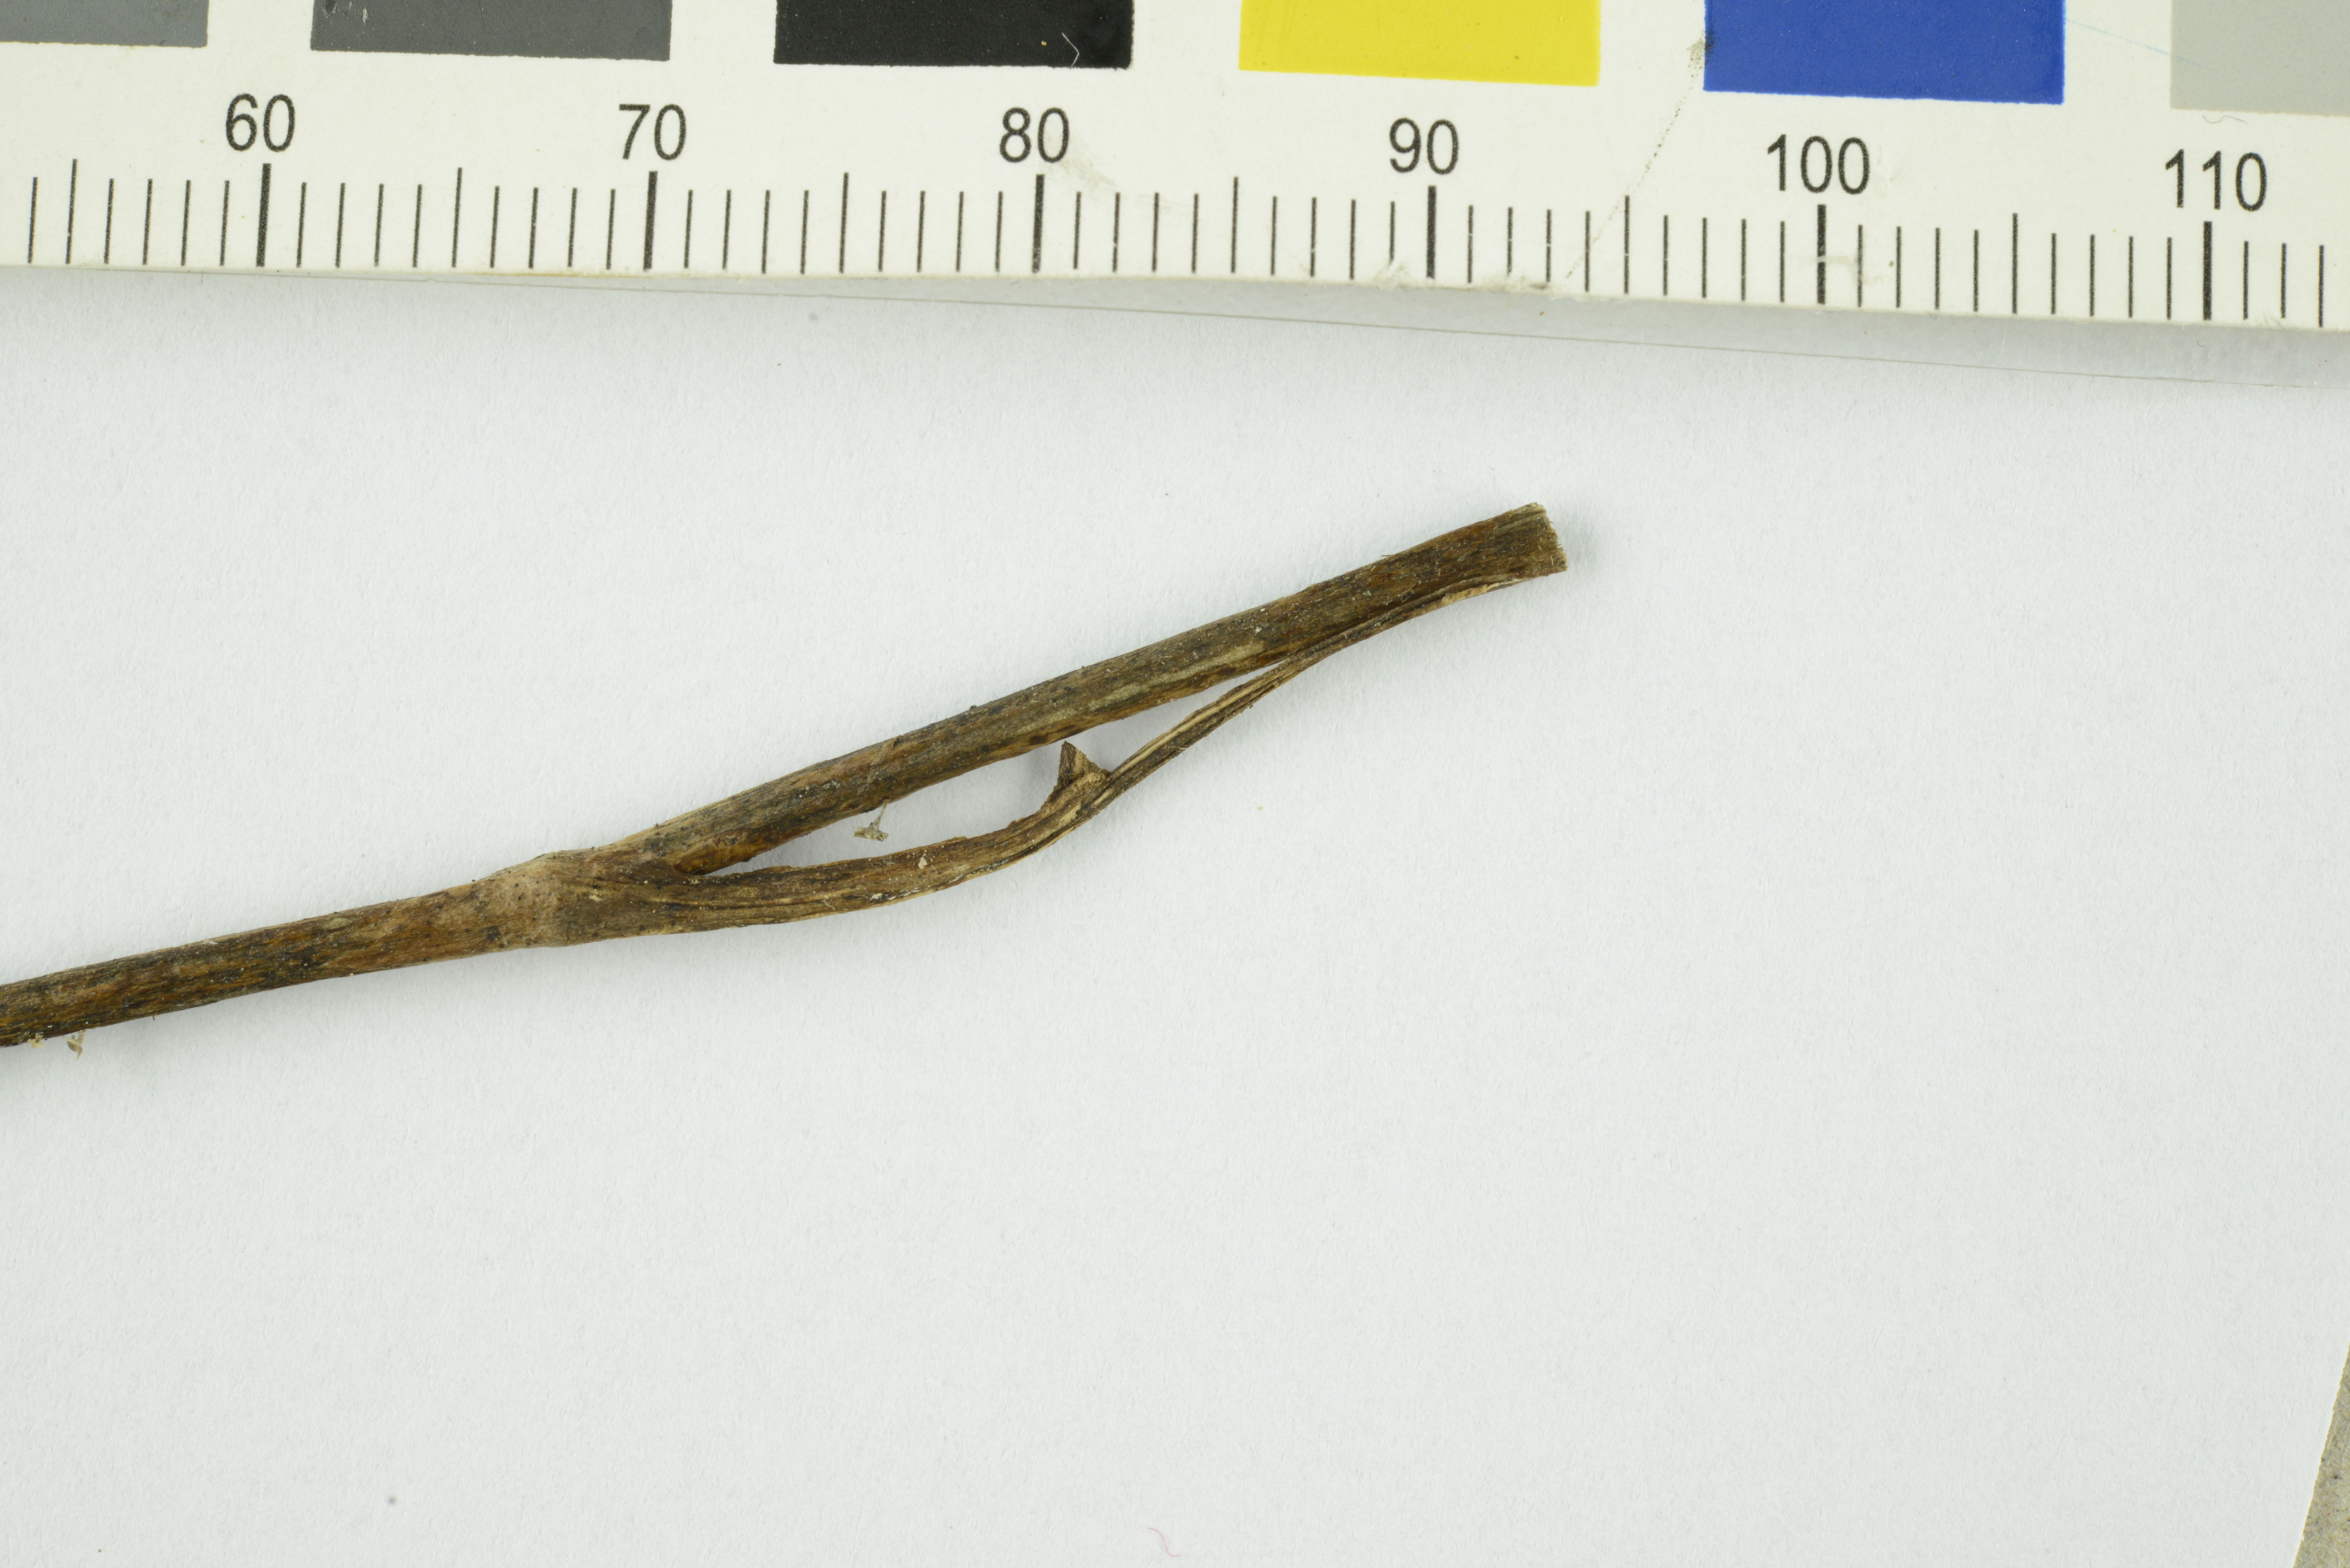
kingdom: Fungi
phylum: Basidiomycota
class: Agaricomycetes
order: Agaricales
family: Marasmiaceae
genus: Calyptella
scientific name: Calyptella capula
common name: Bowl hoodie
